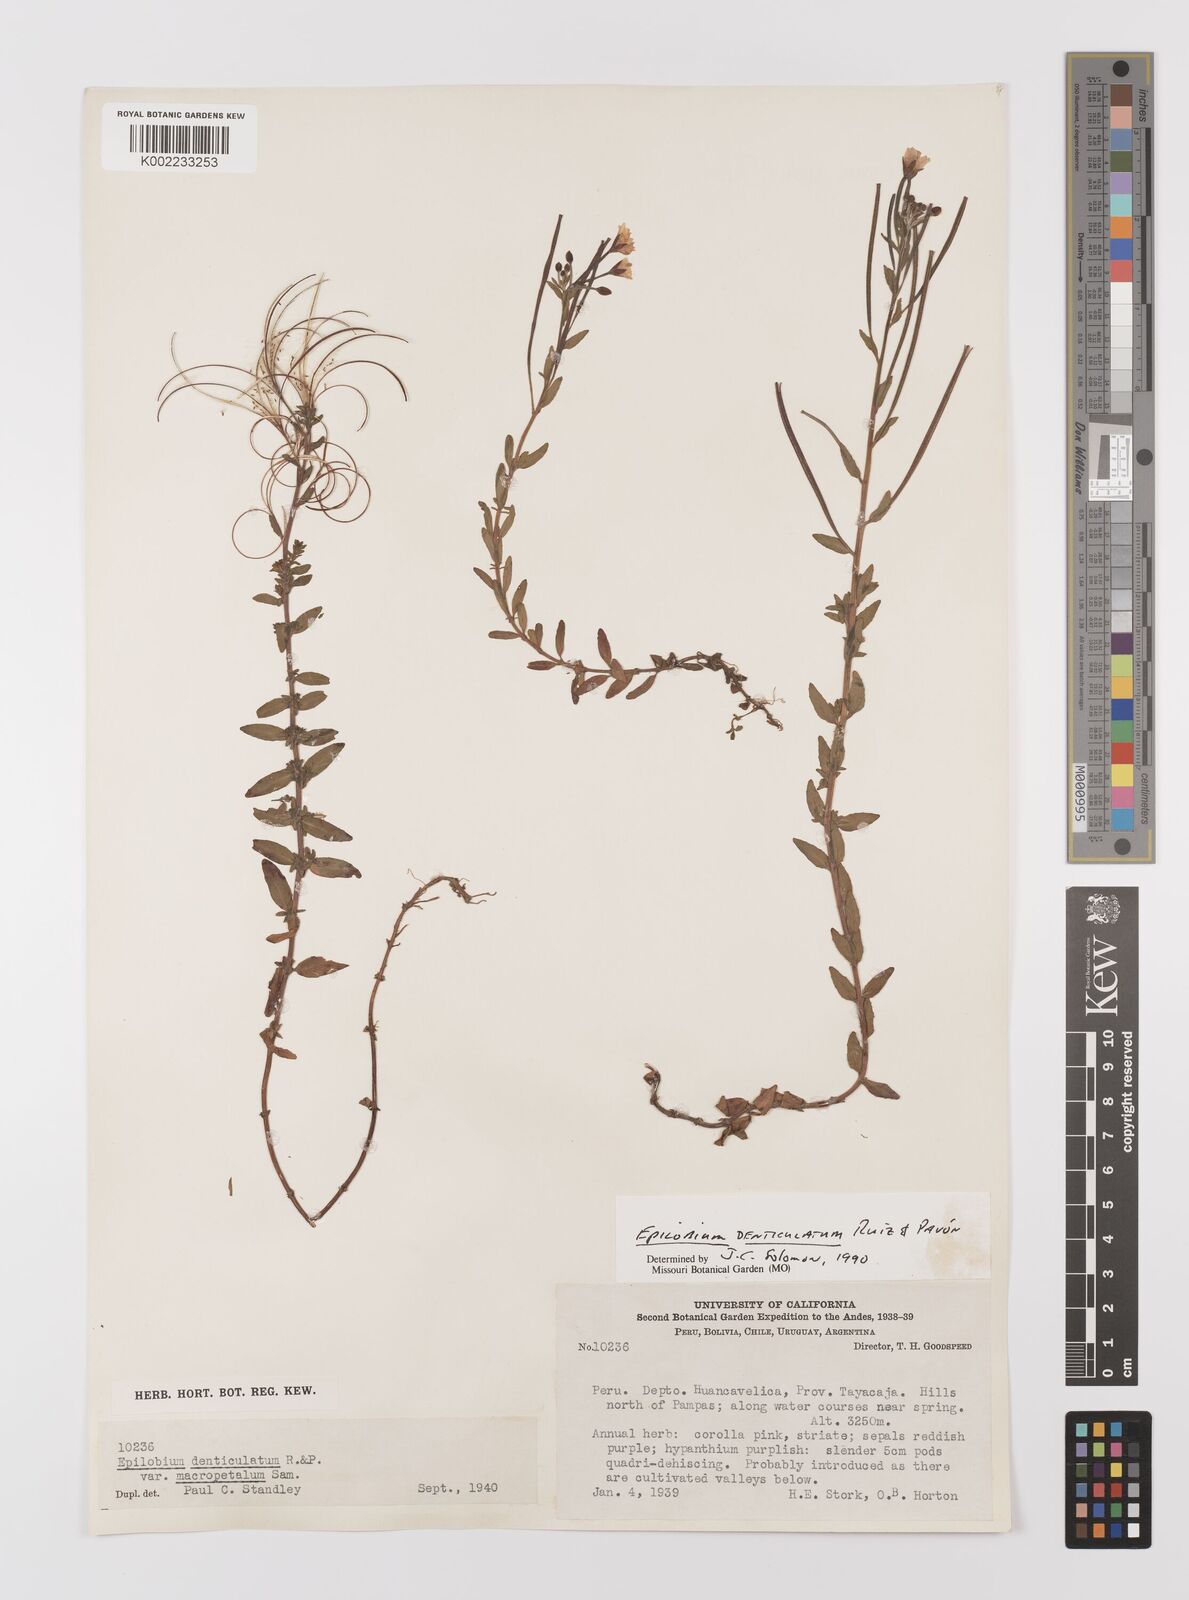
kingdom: Plantae
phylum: Tracheophyta
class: Magnoliopsida
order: Myrtales
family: Onagraceae
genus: Epilobium
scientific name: Epilobium denticulatum
